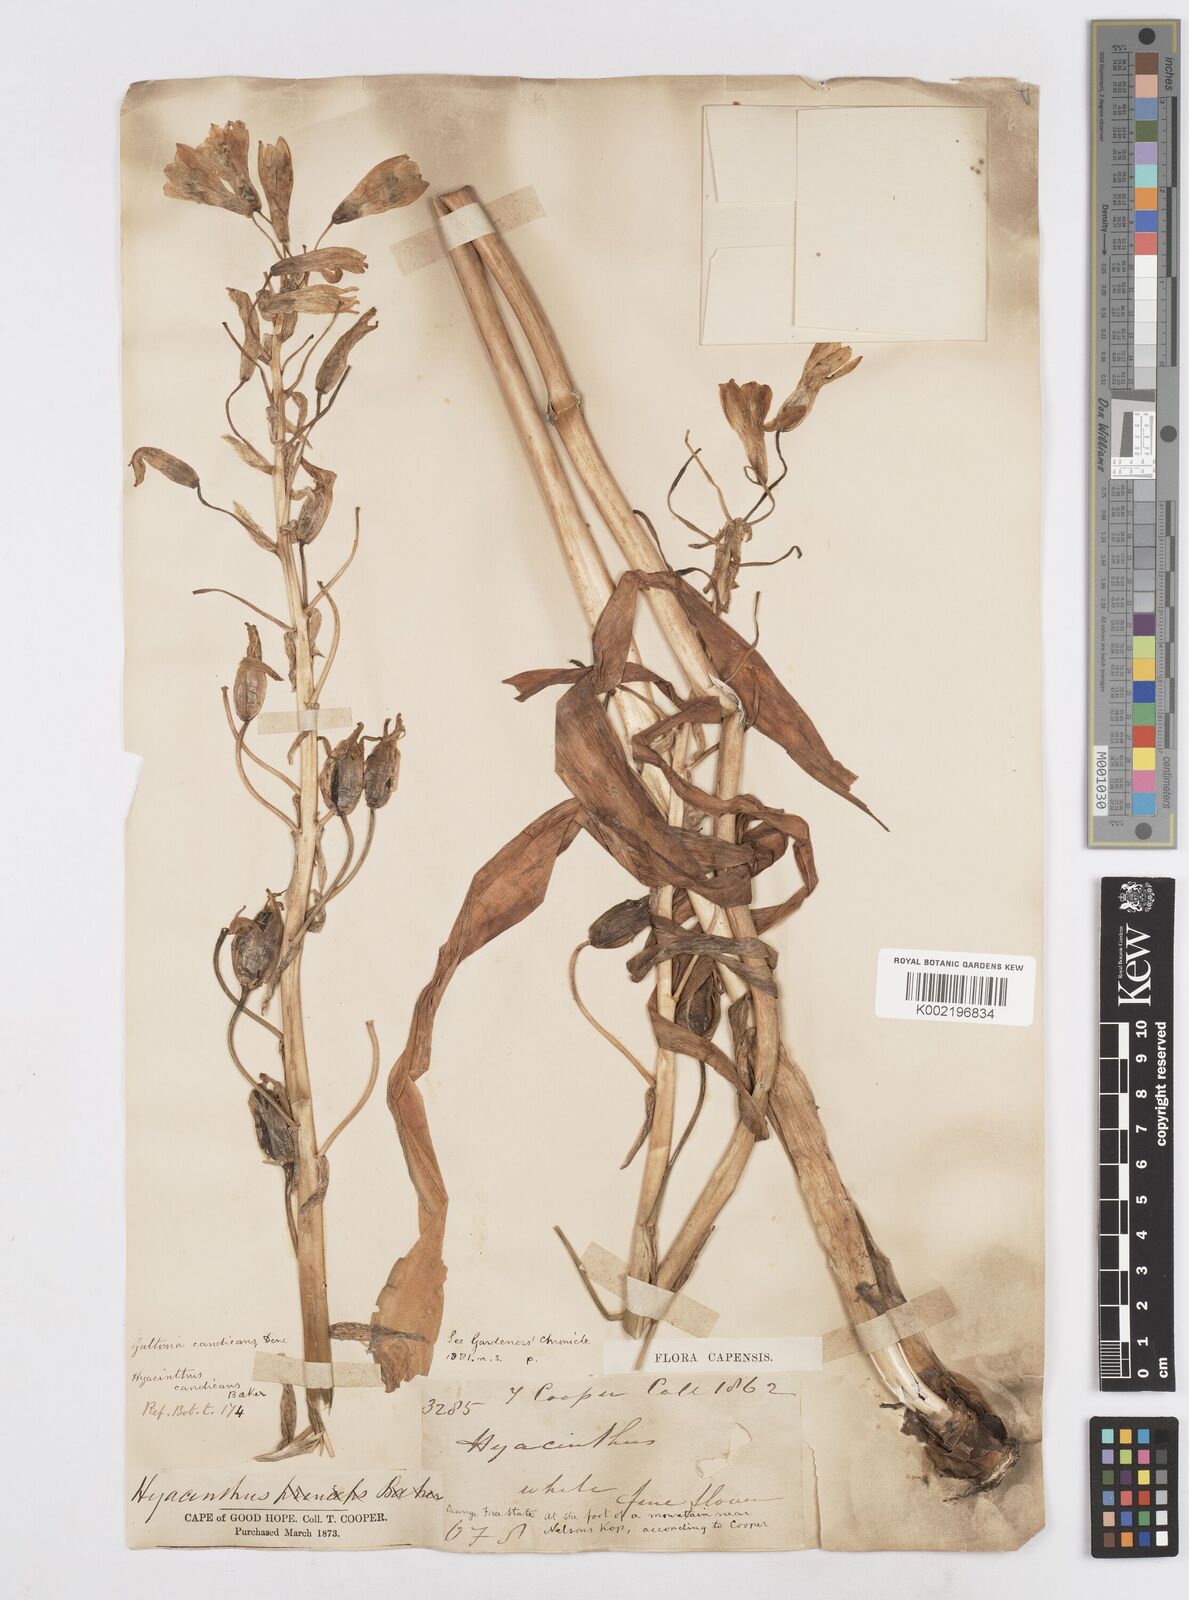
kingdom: Plantae
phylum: Tracheophyta
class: Liliopsida
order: Asparagales
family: Asparagaceae
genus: Ornithogalum
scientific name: Ornithogalum candicans
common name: Summer-hyacinth
